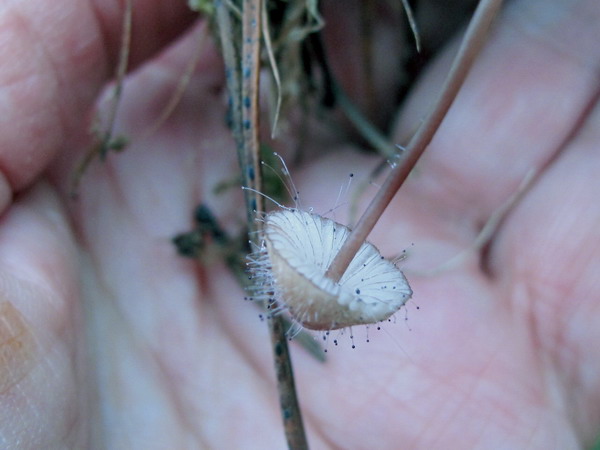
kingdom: Fungi
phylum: Mucoromycota
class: Mucoromycetes
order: Mucorales
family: Phycomycetaceae
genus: Spinellus
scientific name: Spinellus fusiger
